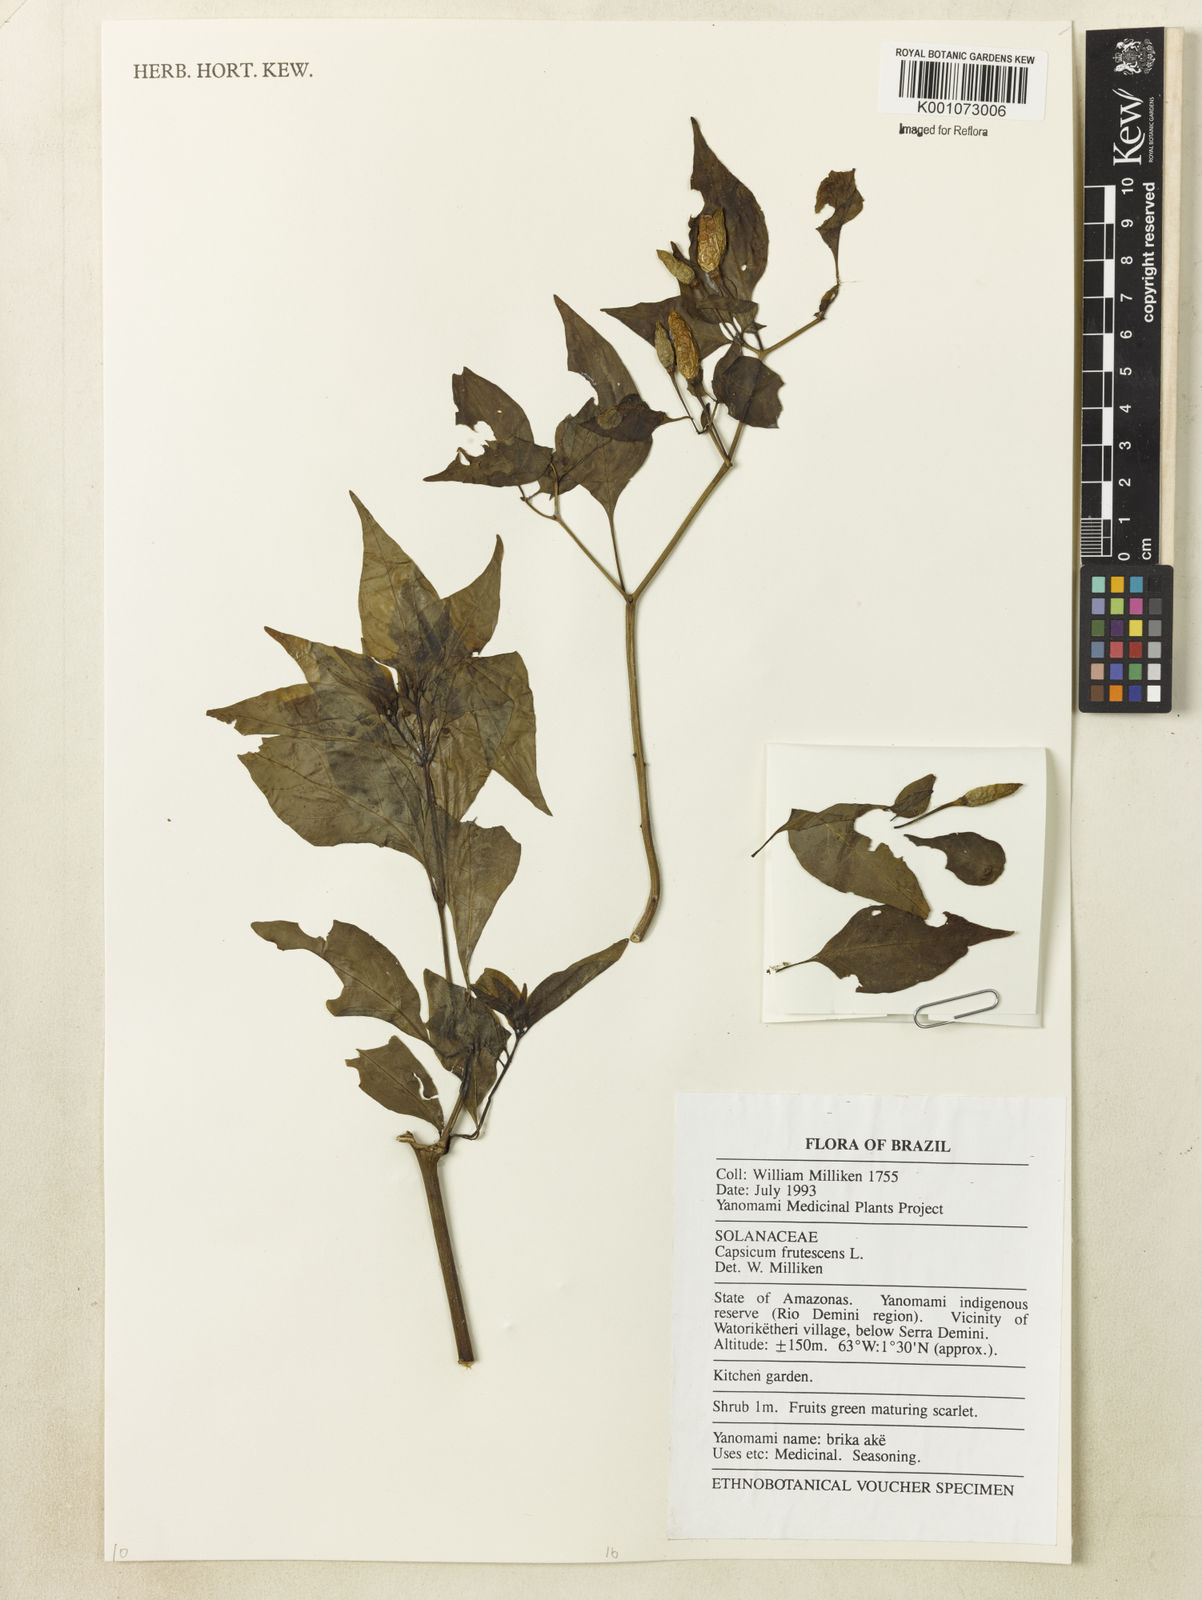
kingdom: Plantae
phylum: Tracheophyta
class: Magnoliopsida
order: Solanales
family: Solanaceae
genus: Capsicum
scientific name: Capsicum frutescens
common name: Bird pepper
